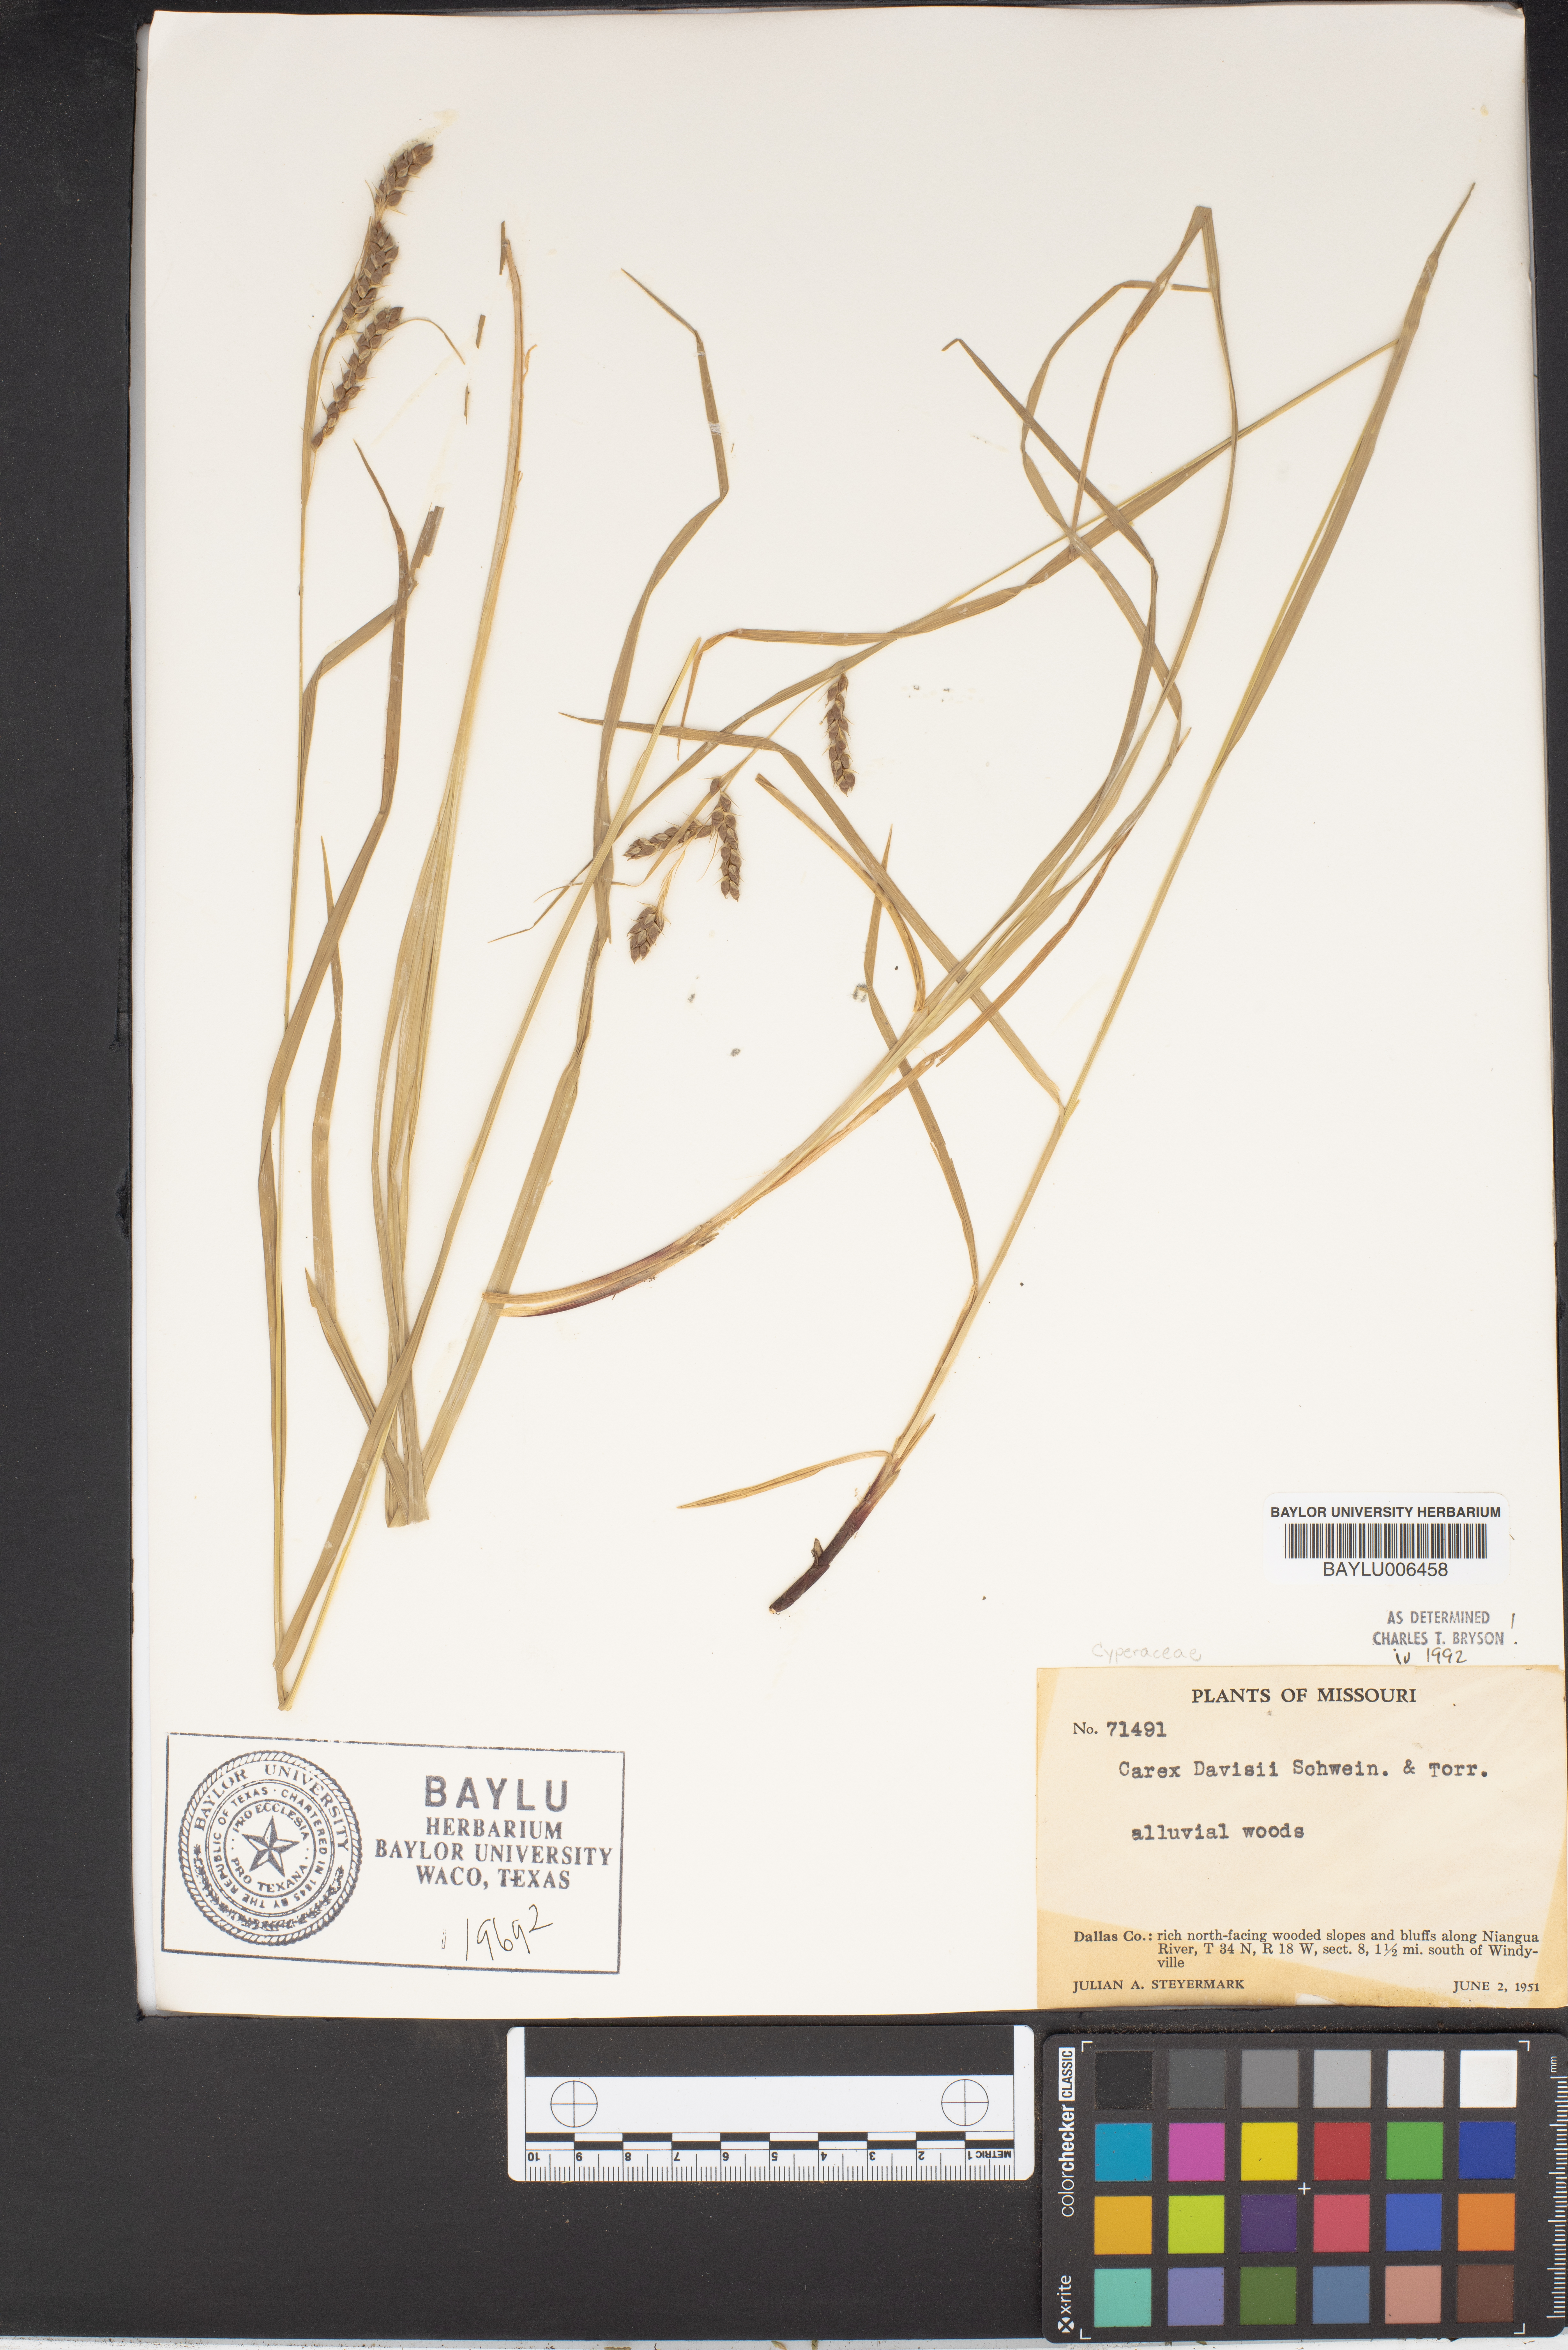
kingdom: Plantae
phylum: Tracheophyta
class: Liliopsida
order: Poales
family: Cyperaceae
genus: Carex
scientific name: Carex davisii
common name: Davis' sedge
